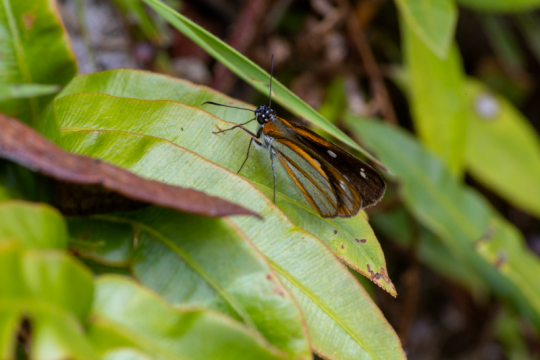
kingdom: Animalia
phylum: Arthropoda
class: Insecta
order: Lepidoptera
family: Hesperiidae
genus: Vettius
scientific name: Vettius coryna
